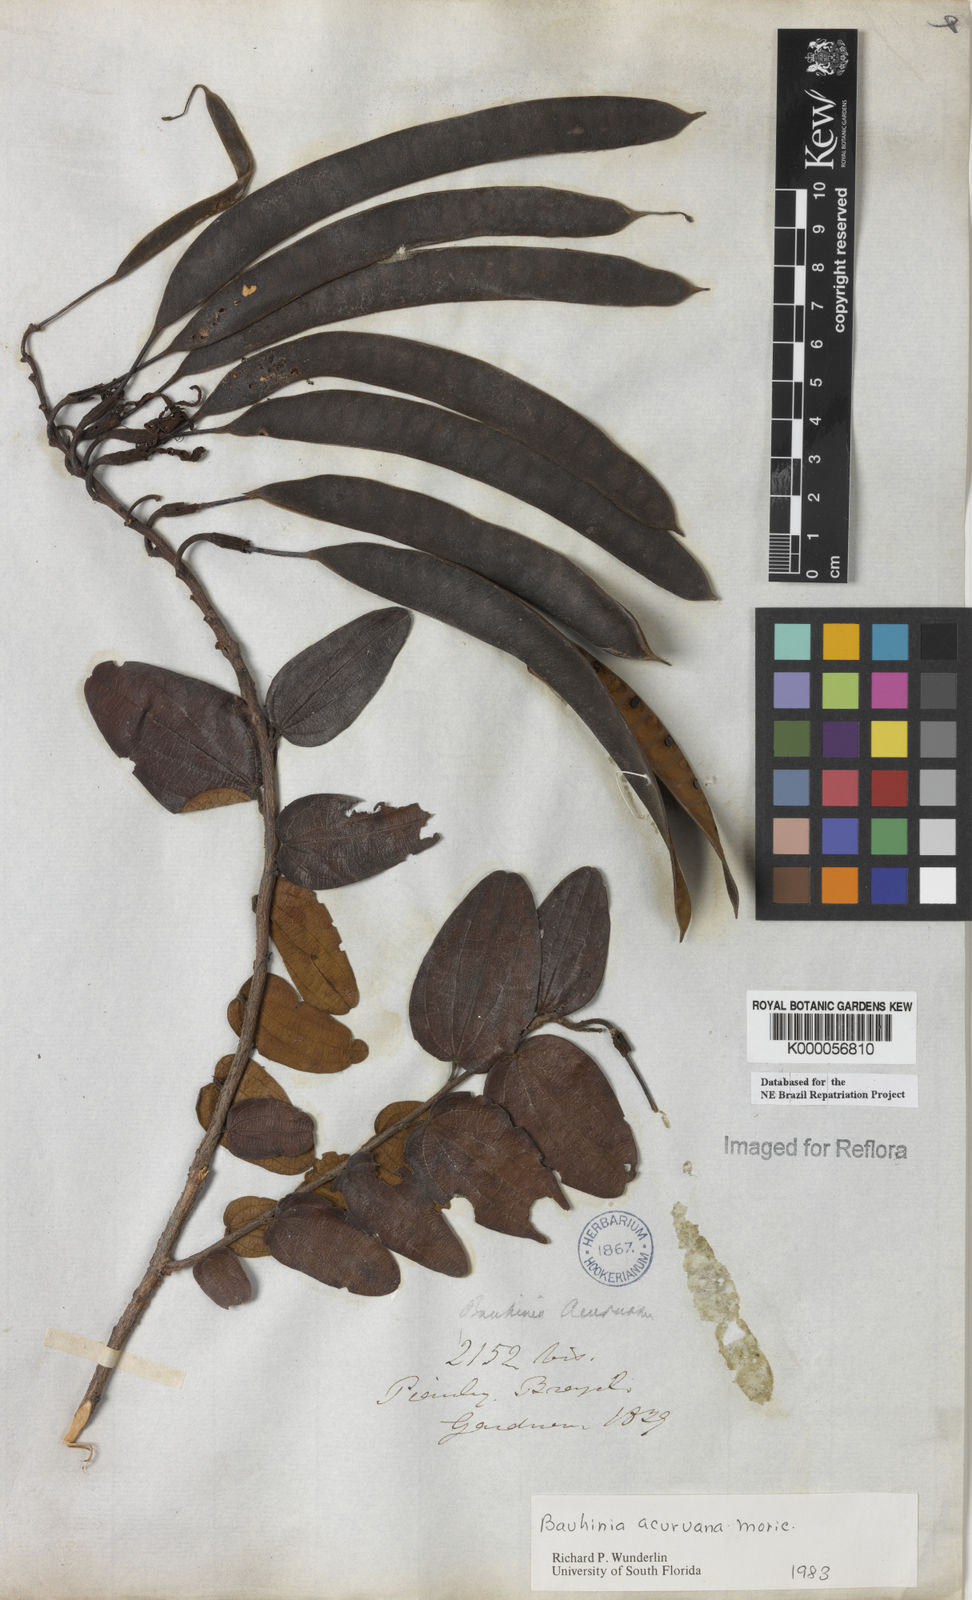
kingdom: Plantae
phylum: Tracheophyta
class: Magnoliopsida
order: Fabales
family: Fabaceae
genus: Bauhinia
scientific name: Bauhinia acuruana
